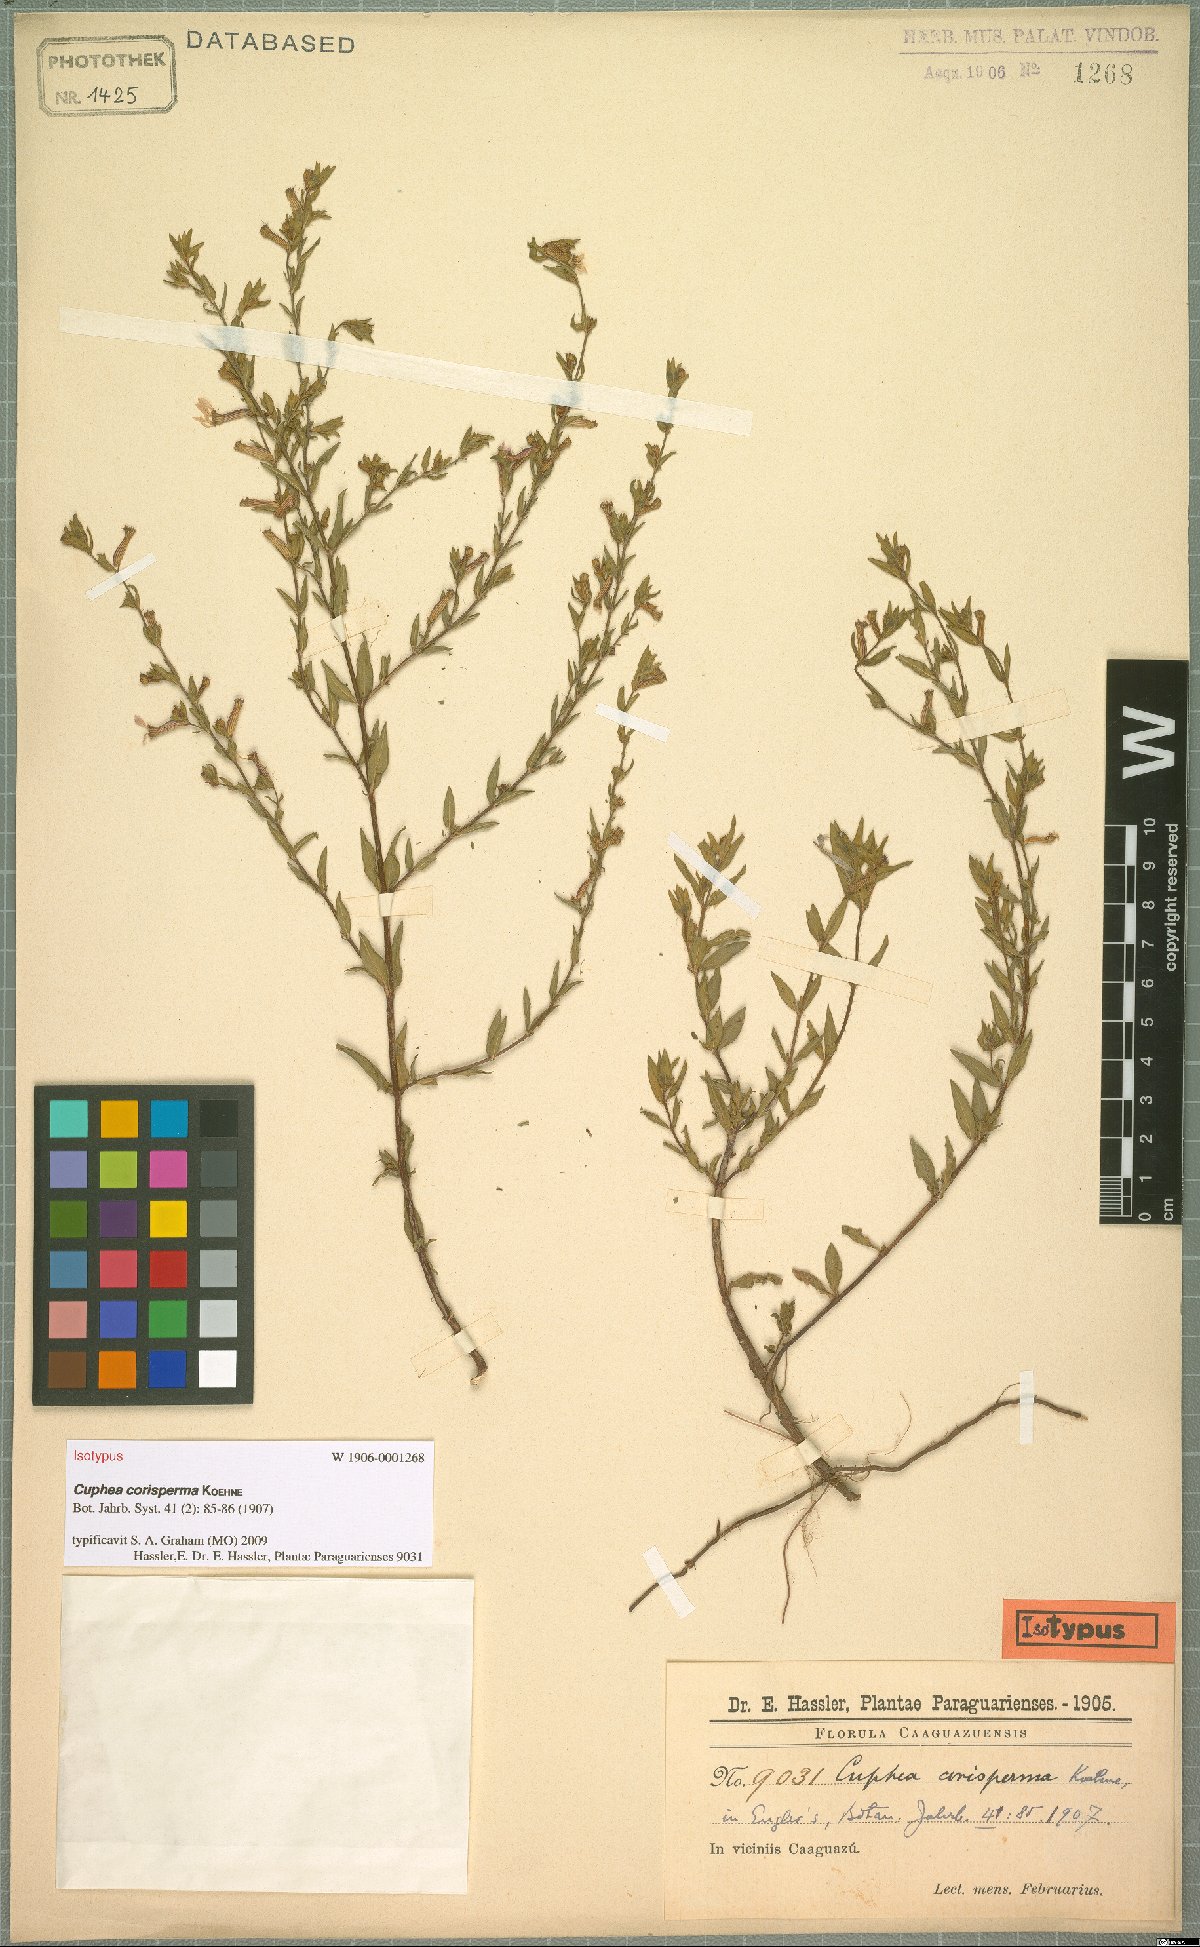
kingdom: Plantae
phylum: Tracheophyta
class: Magnoliopsida
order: Myrtales
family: Lythraceae
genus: Cuphea
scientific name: Cuphea corisperma
